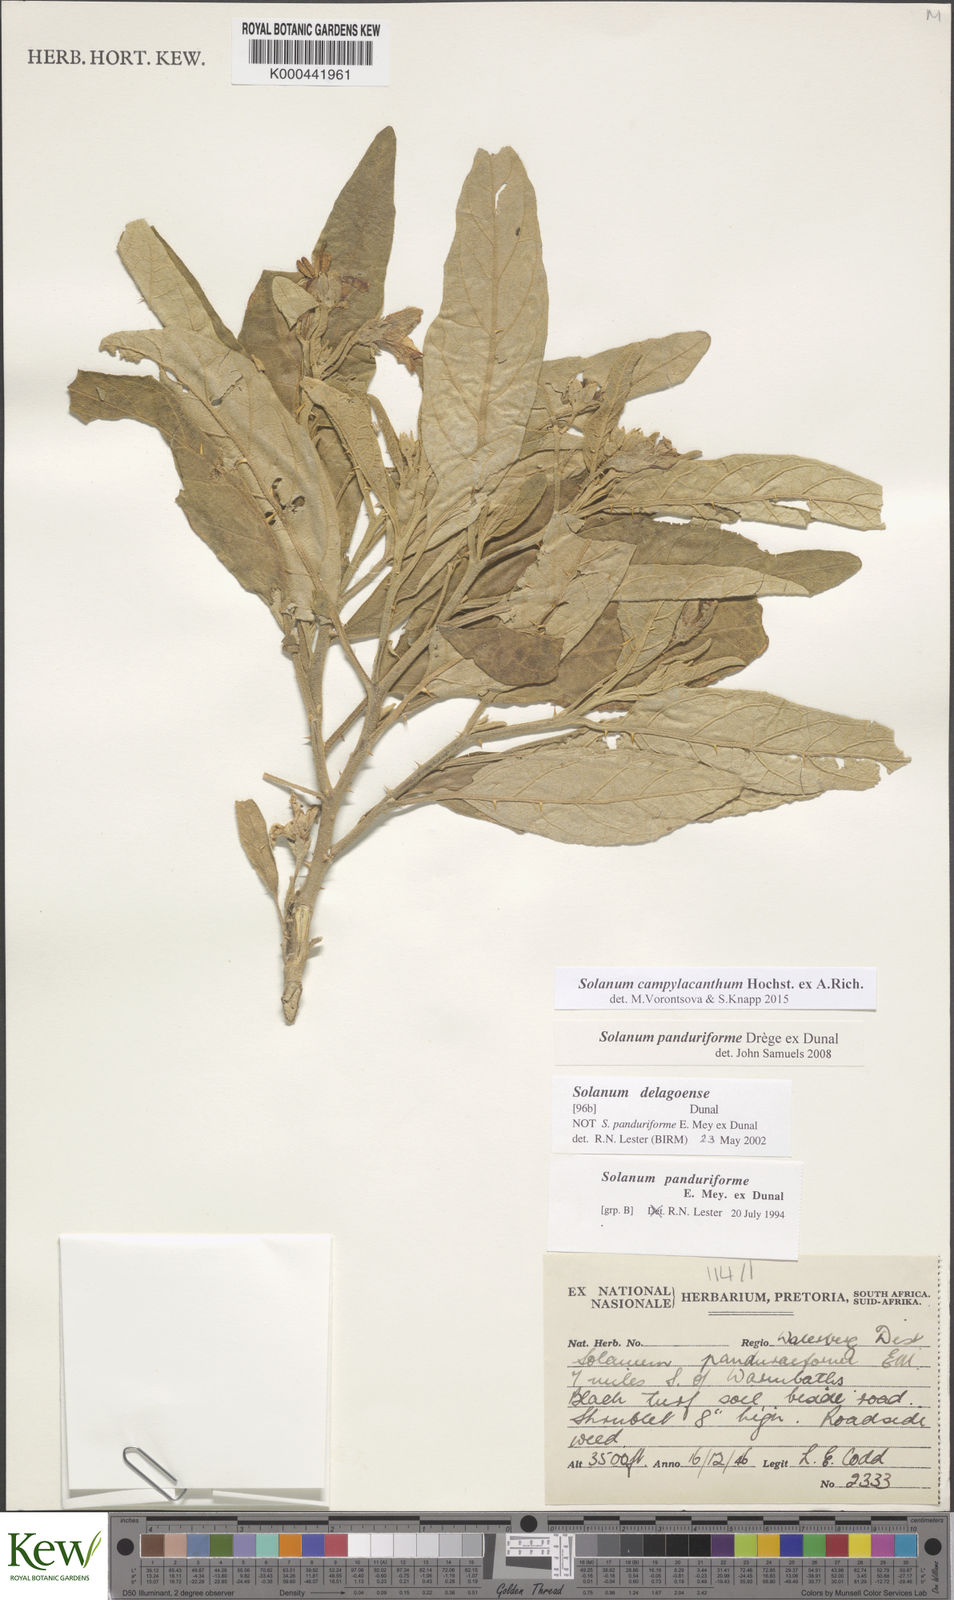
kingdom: Plantae
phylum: Tracheophyta
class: Magnoliopsida
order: Solanales
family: Solanaceae
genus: Solanum
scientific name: Solanum campylacanthum
